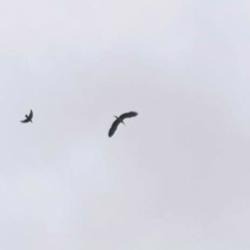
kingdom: Animalia
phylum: Chordata
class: Aves
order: Pelecaniformes
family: Ardeidae
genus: Ardea
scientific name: Ardea cinerea
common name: Fiskehejre
